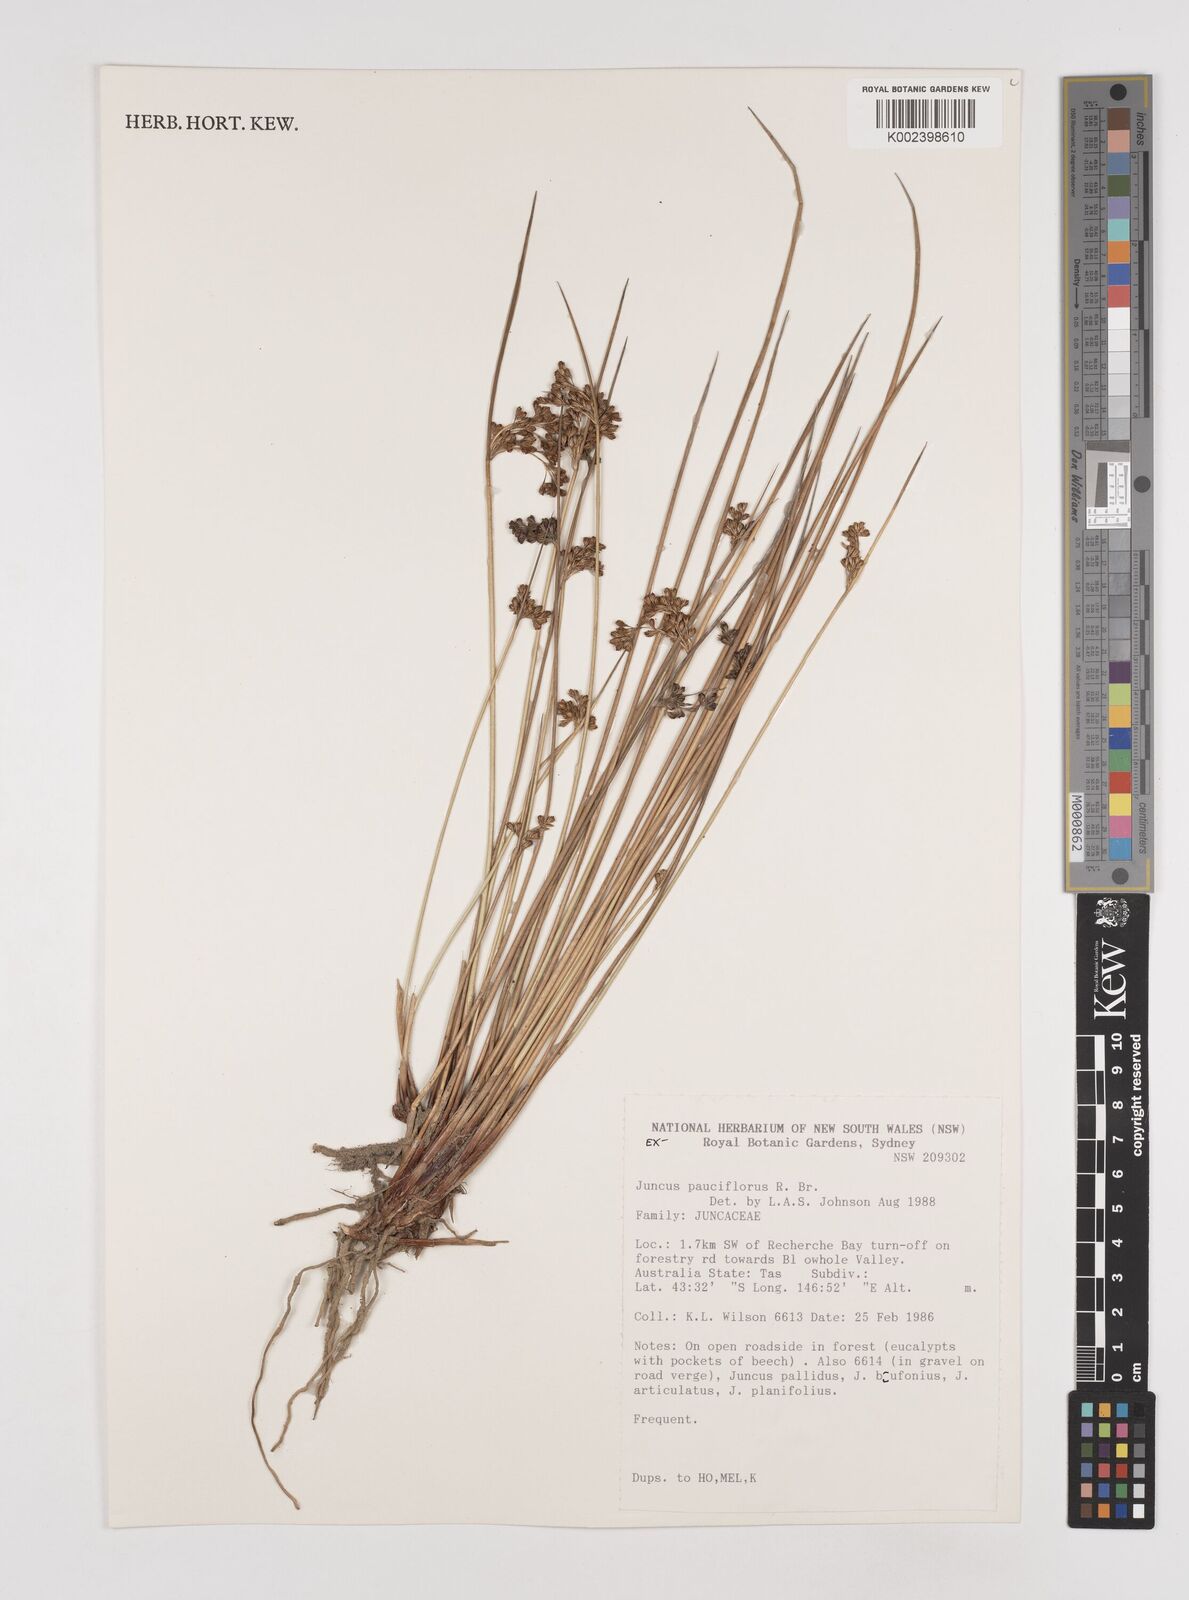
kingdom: Plantae
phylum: Tracheophyta
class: Liliopsida
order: Poales
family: Juncaceae
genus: Juncus
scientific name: Juncus pauciflorus
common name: Loose-flowered rush
